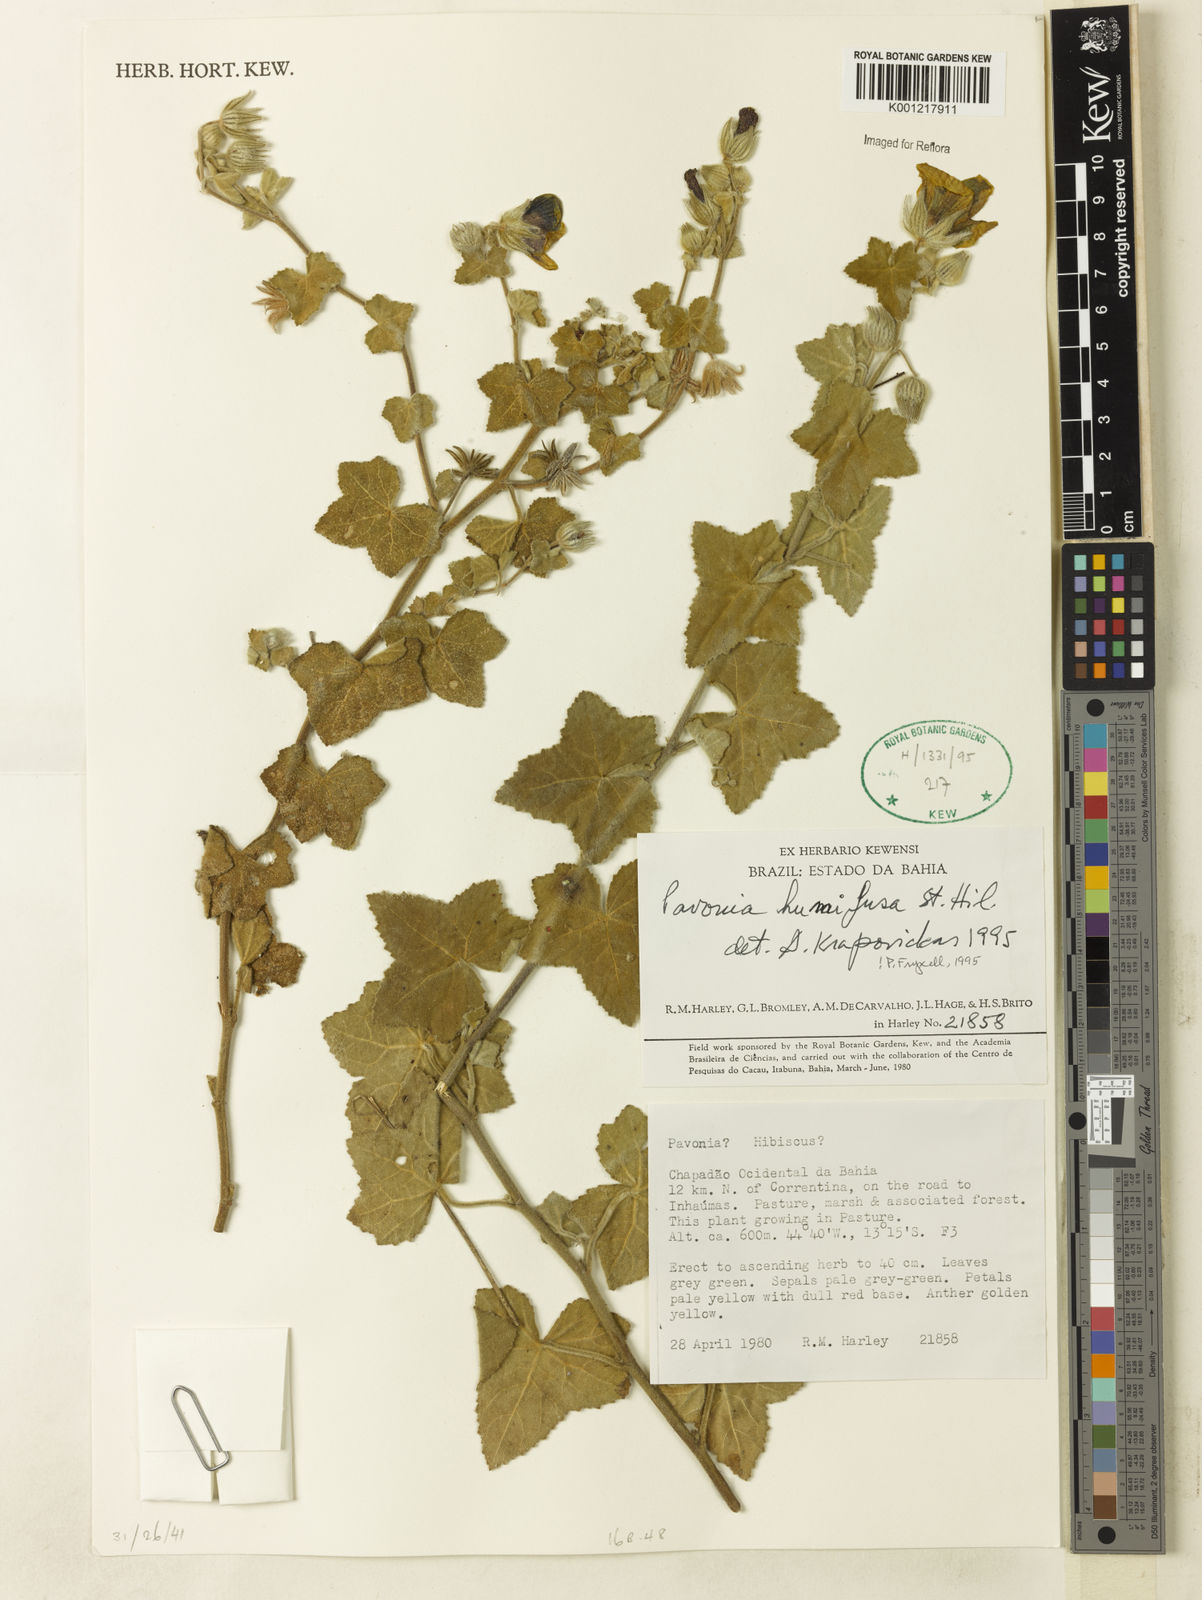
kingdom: Plantae
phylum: Tracheophyta
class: Magnoliopsida
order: Malvales
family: Malvaceae
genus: Pavonia
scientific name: Pavonia humifusa
